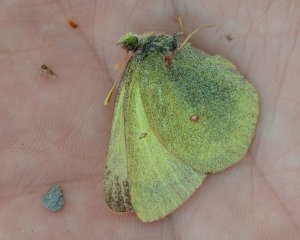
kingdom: Animalia
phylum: Arthropoda
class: Insecta
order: Lepidoptera
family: Pieridae
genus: Colias
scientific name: Colias pelidne
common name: Pelidne Sulphur
